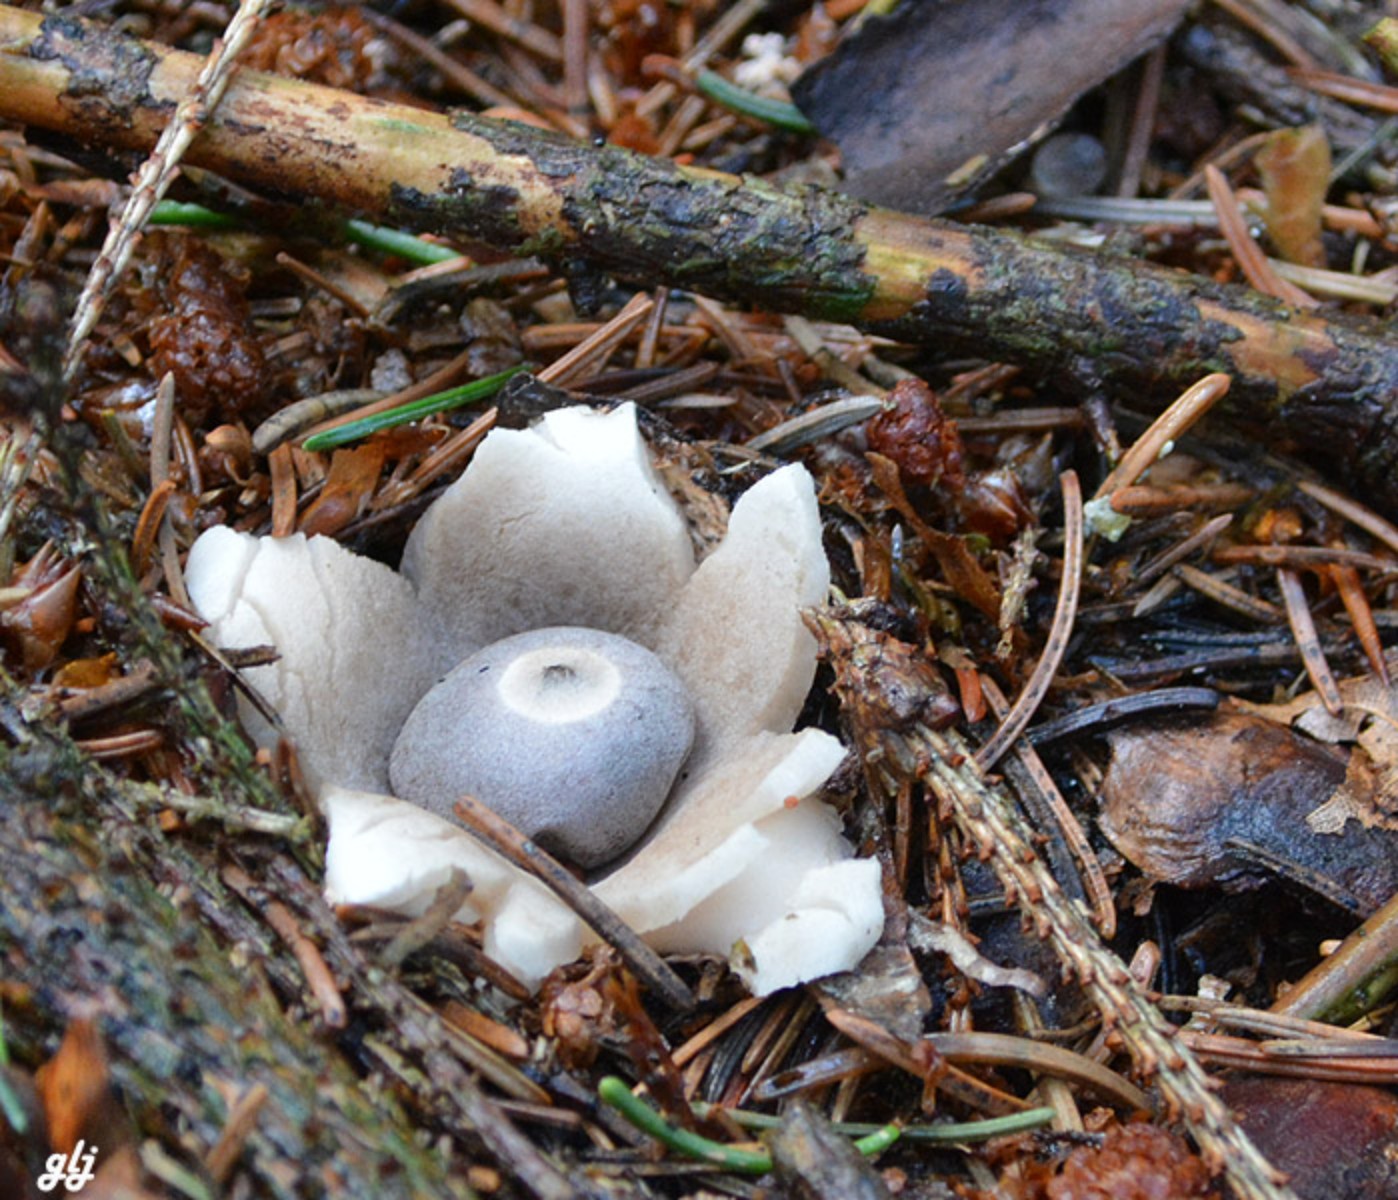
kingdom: Fungi
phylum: Basidiomycota
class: Agaricomycetes
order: Geastrales
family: Geastraceae
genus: Geastrum
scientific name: Geastrum quadrifidum
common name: firfliget stjernebold
